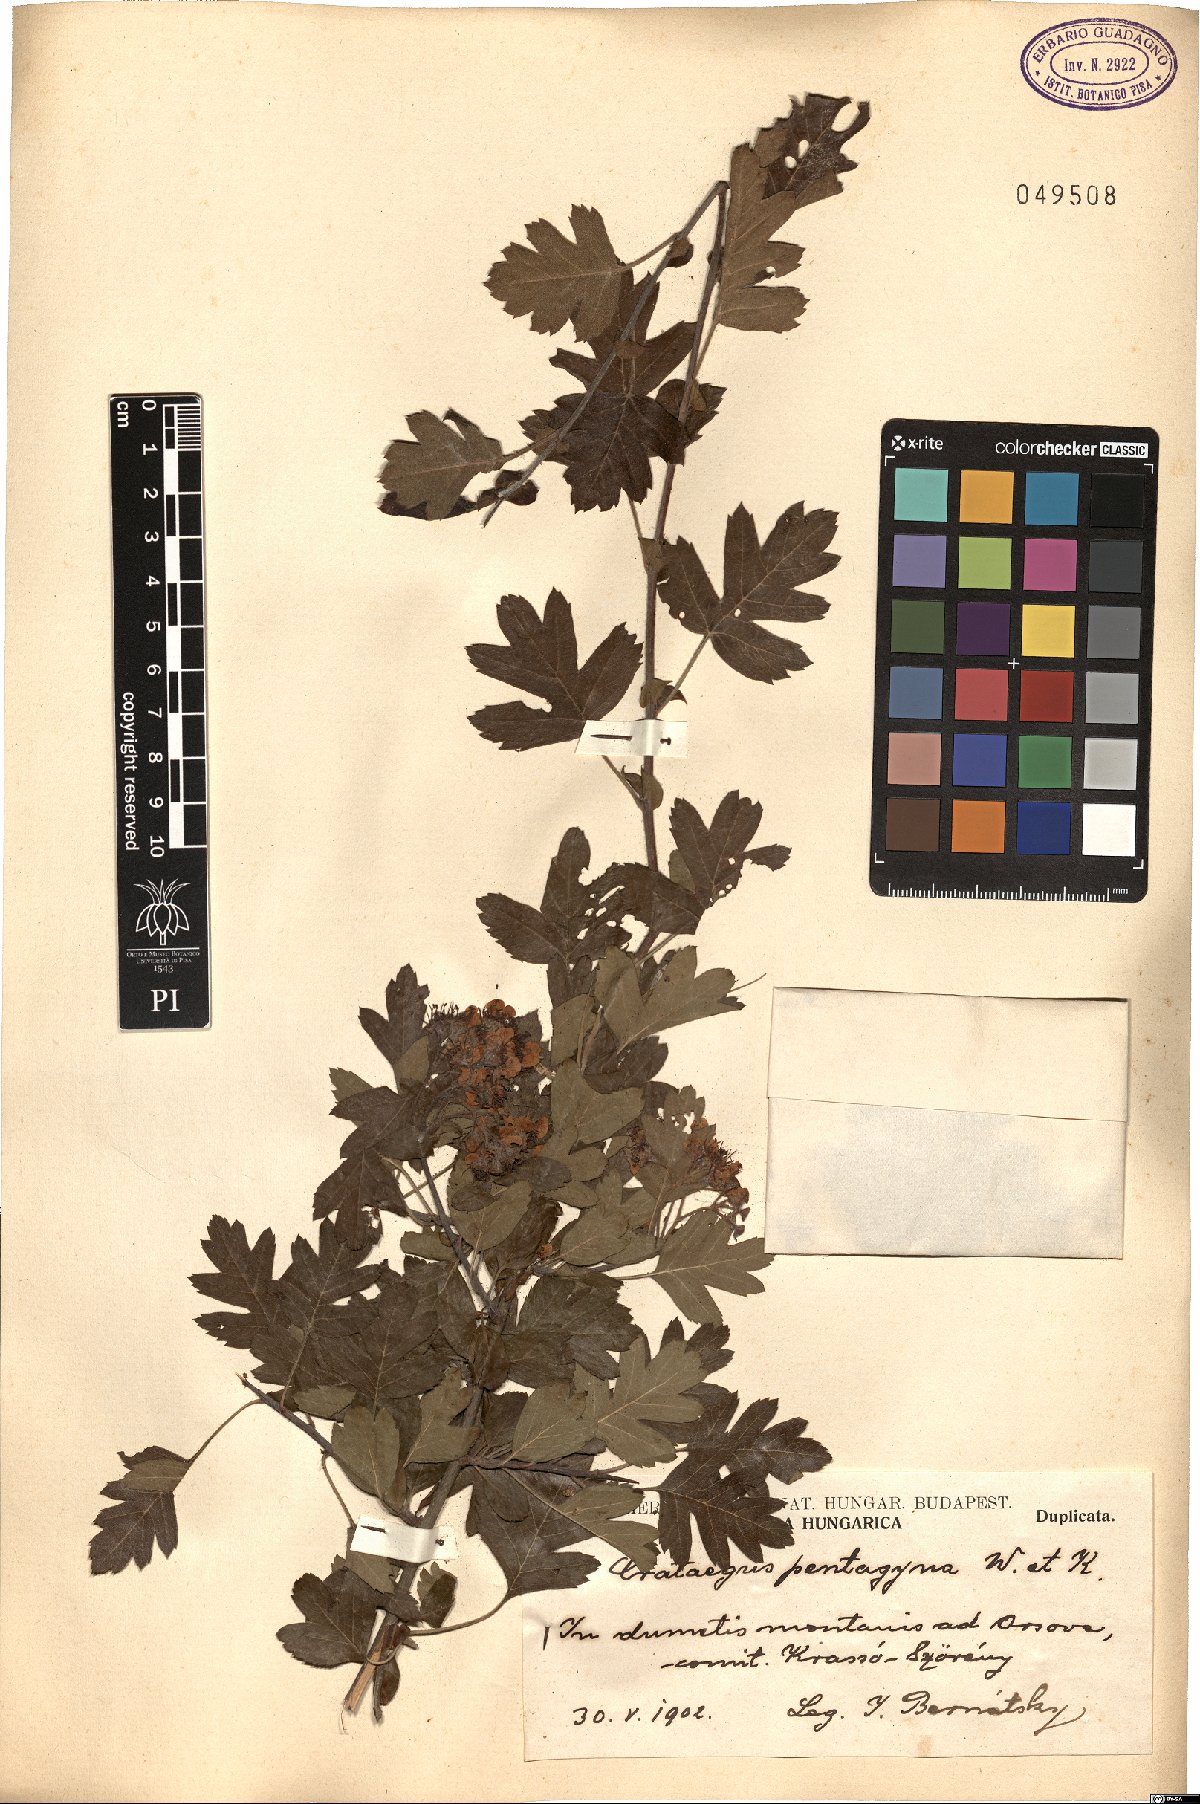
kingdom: Plantae
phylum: Tracheophyta
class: Magnoliopsida
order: Rosales
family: Rosaceae
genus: Crataegus
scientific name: Crataegus pentagyna
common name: Small-flowered black hawthorn
